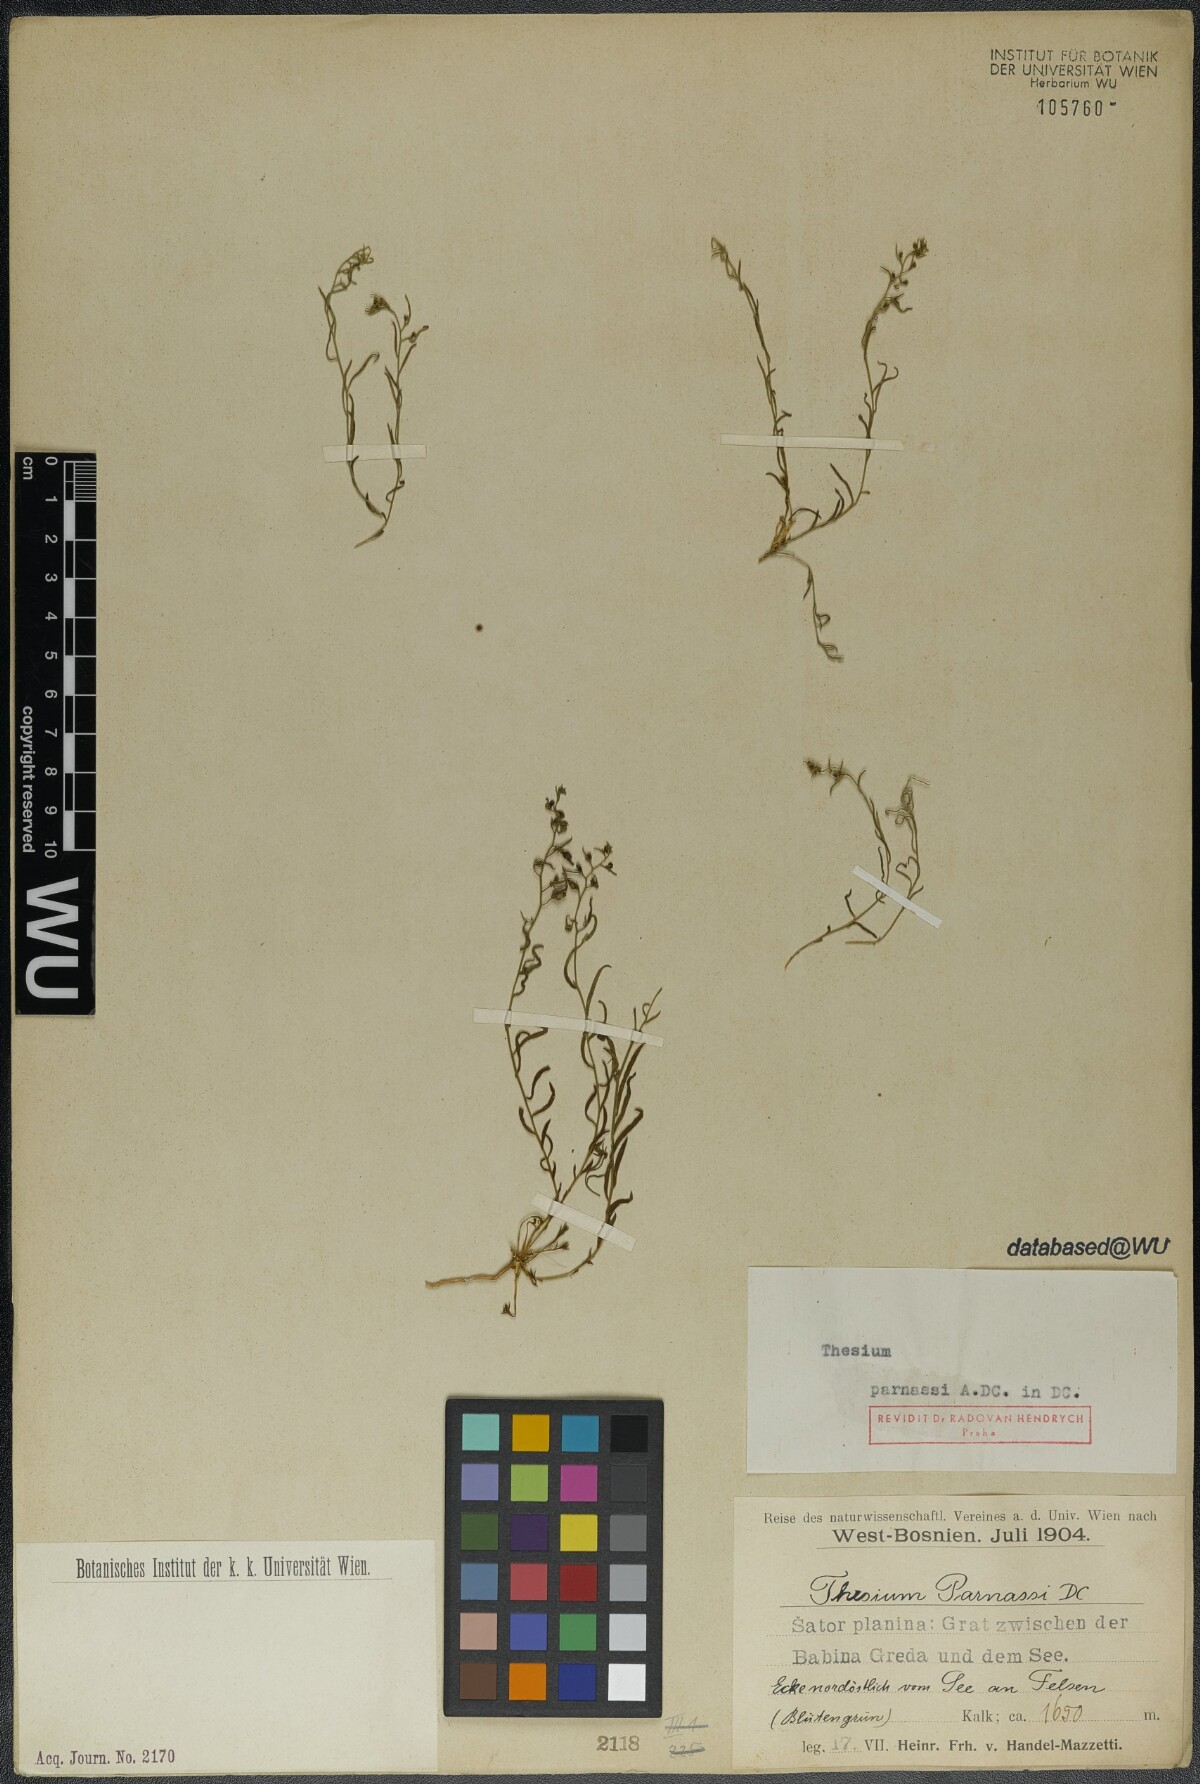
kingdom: Plantae
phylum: Tracheophyta
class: Magnoliopsida
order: Santalales
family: Thesiaceae
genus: Thesium
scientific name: Thesium parnassi
